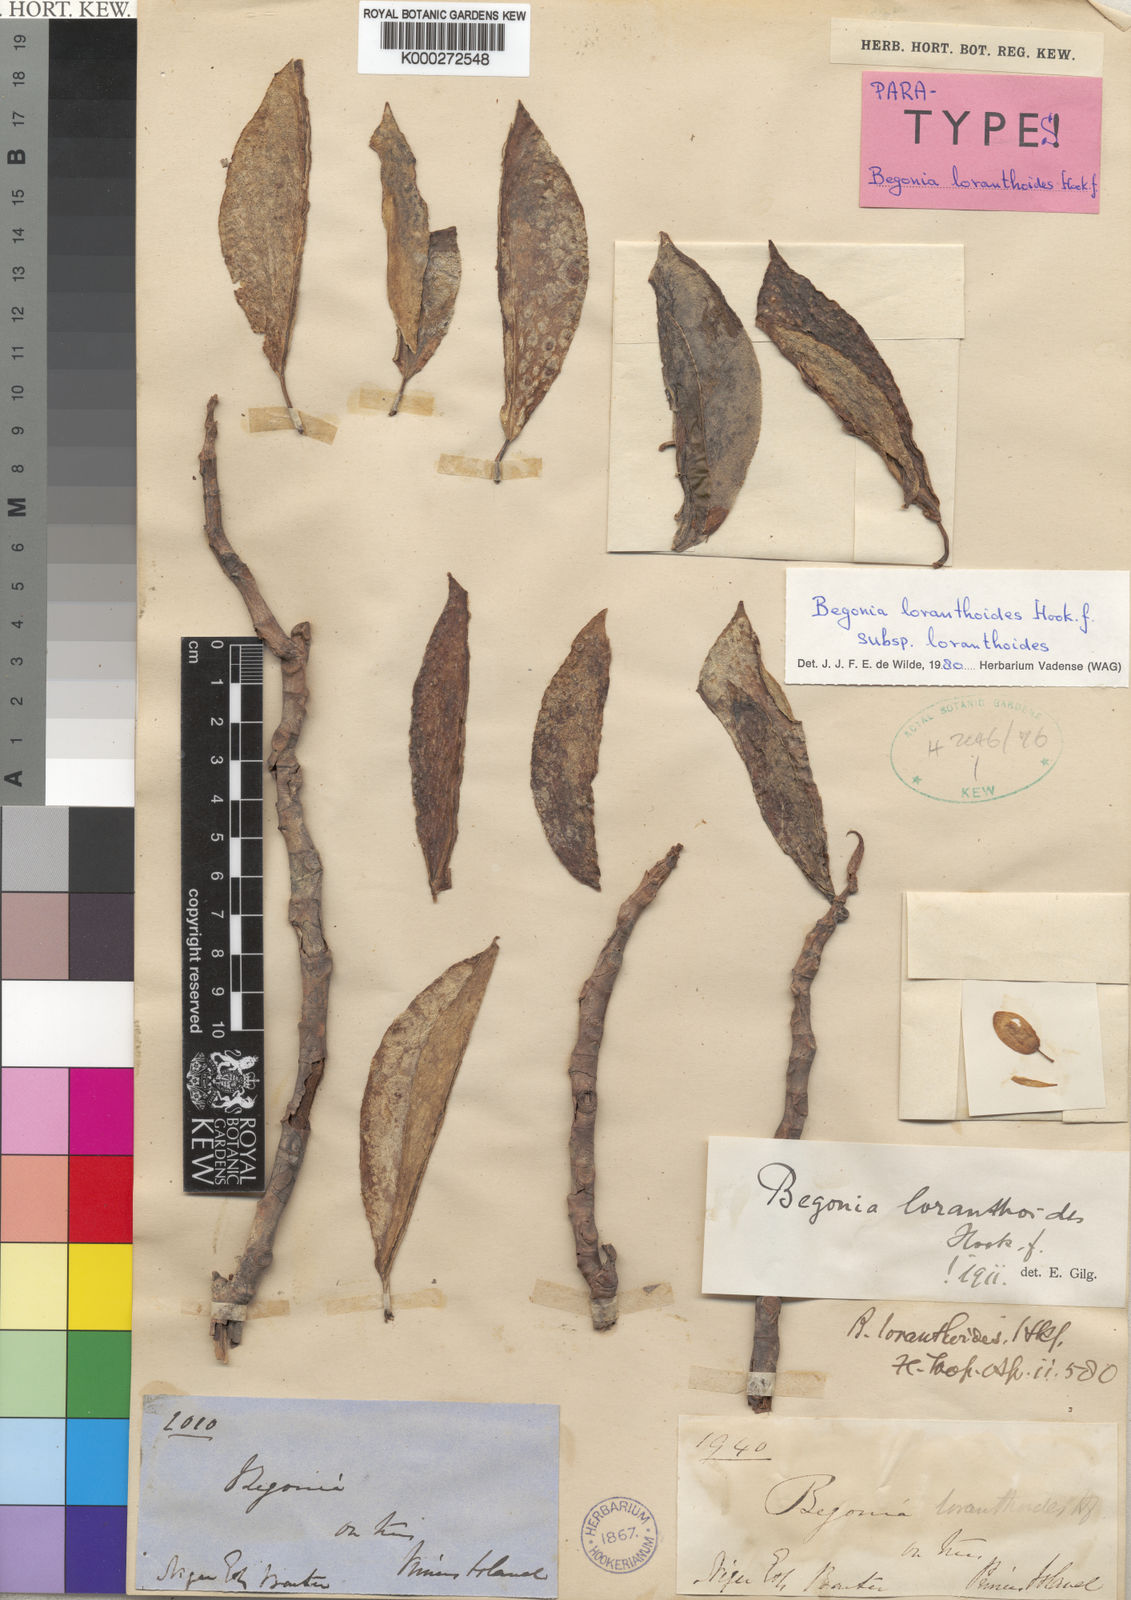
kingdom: Plantae
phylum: Tracheophyta
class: Magnoliopsida
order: Cucurbitales
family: Begoniaceae
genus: Begonia
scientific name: Begonia loranthoides
